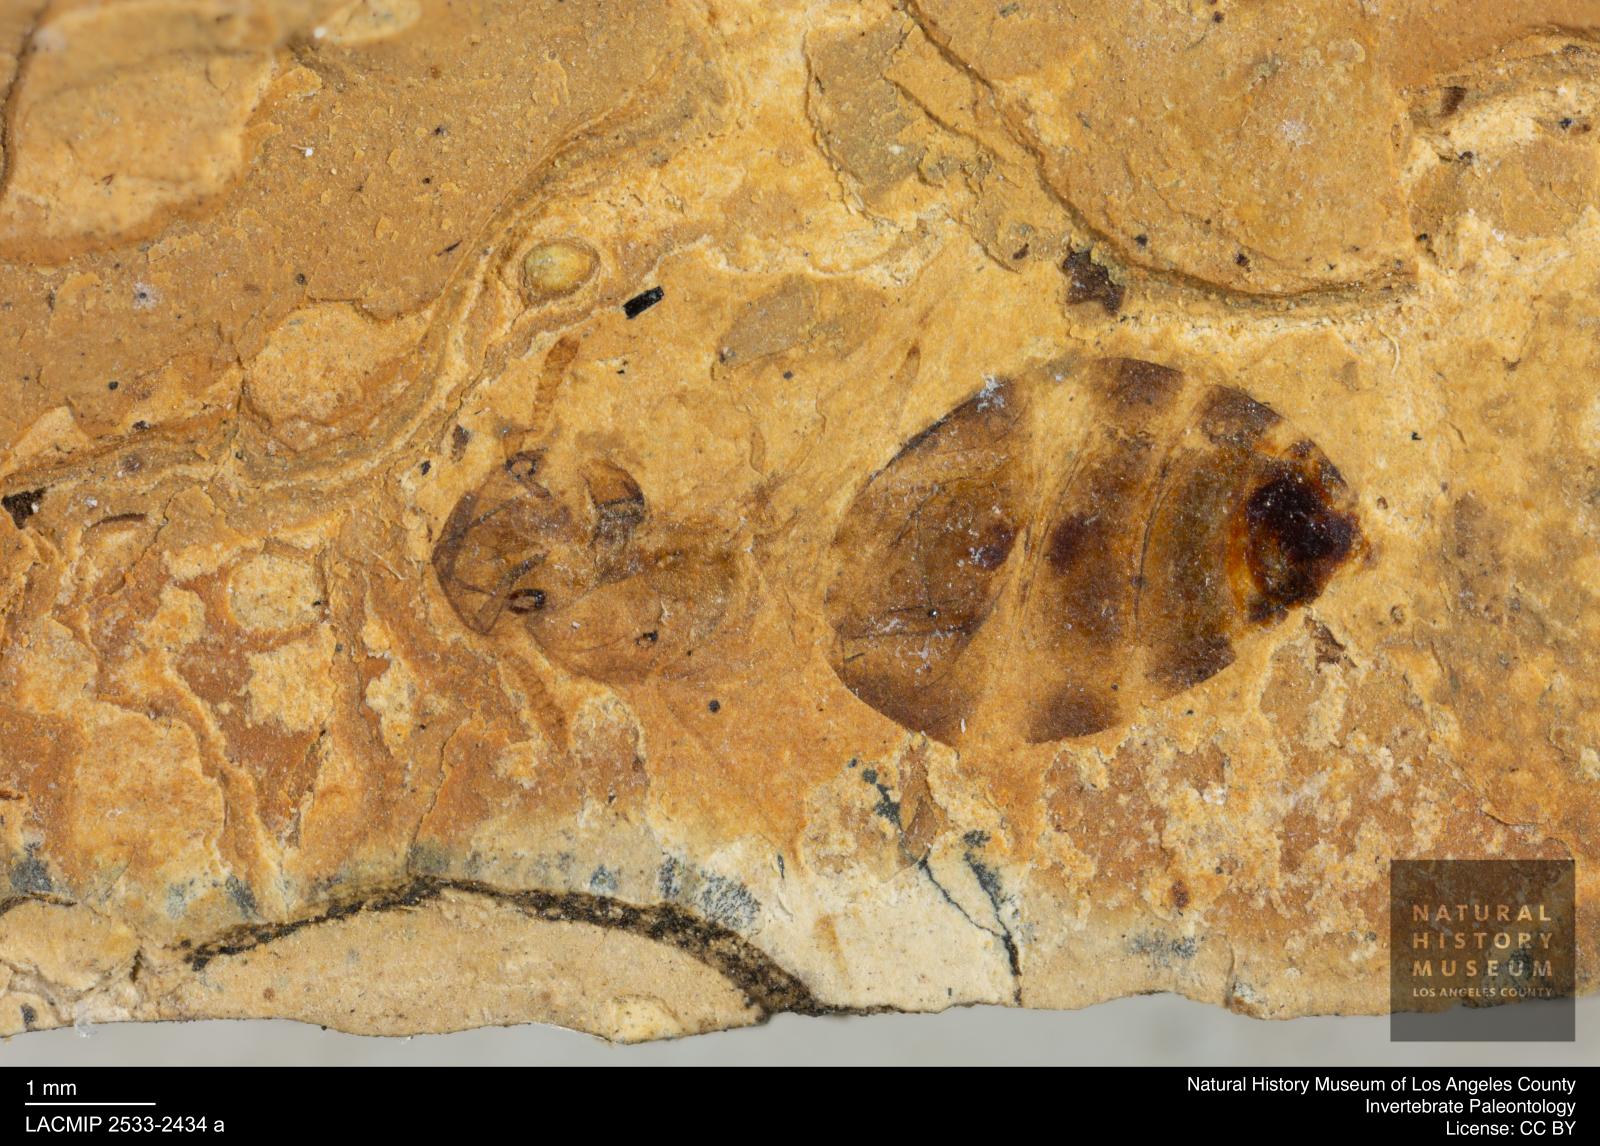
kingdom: Animalia
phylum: Arthropoda
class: Insecta
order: Hymenoptera
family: Formicidae
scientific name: Formicidae
